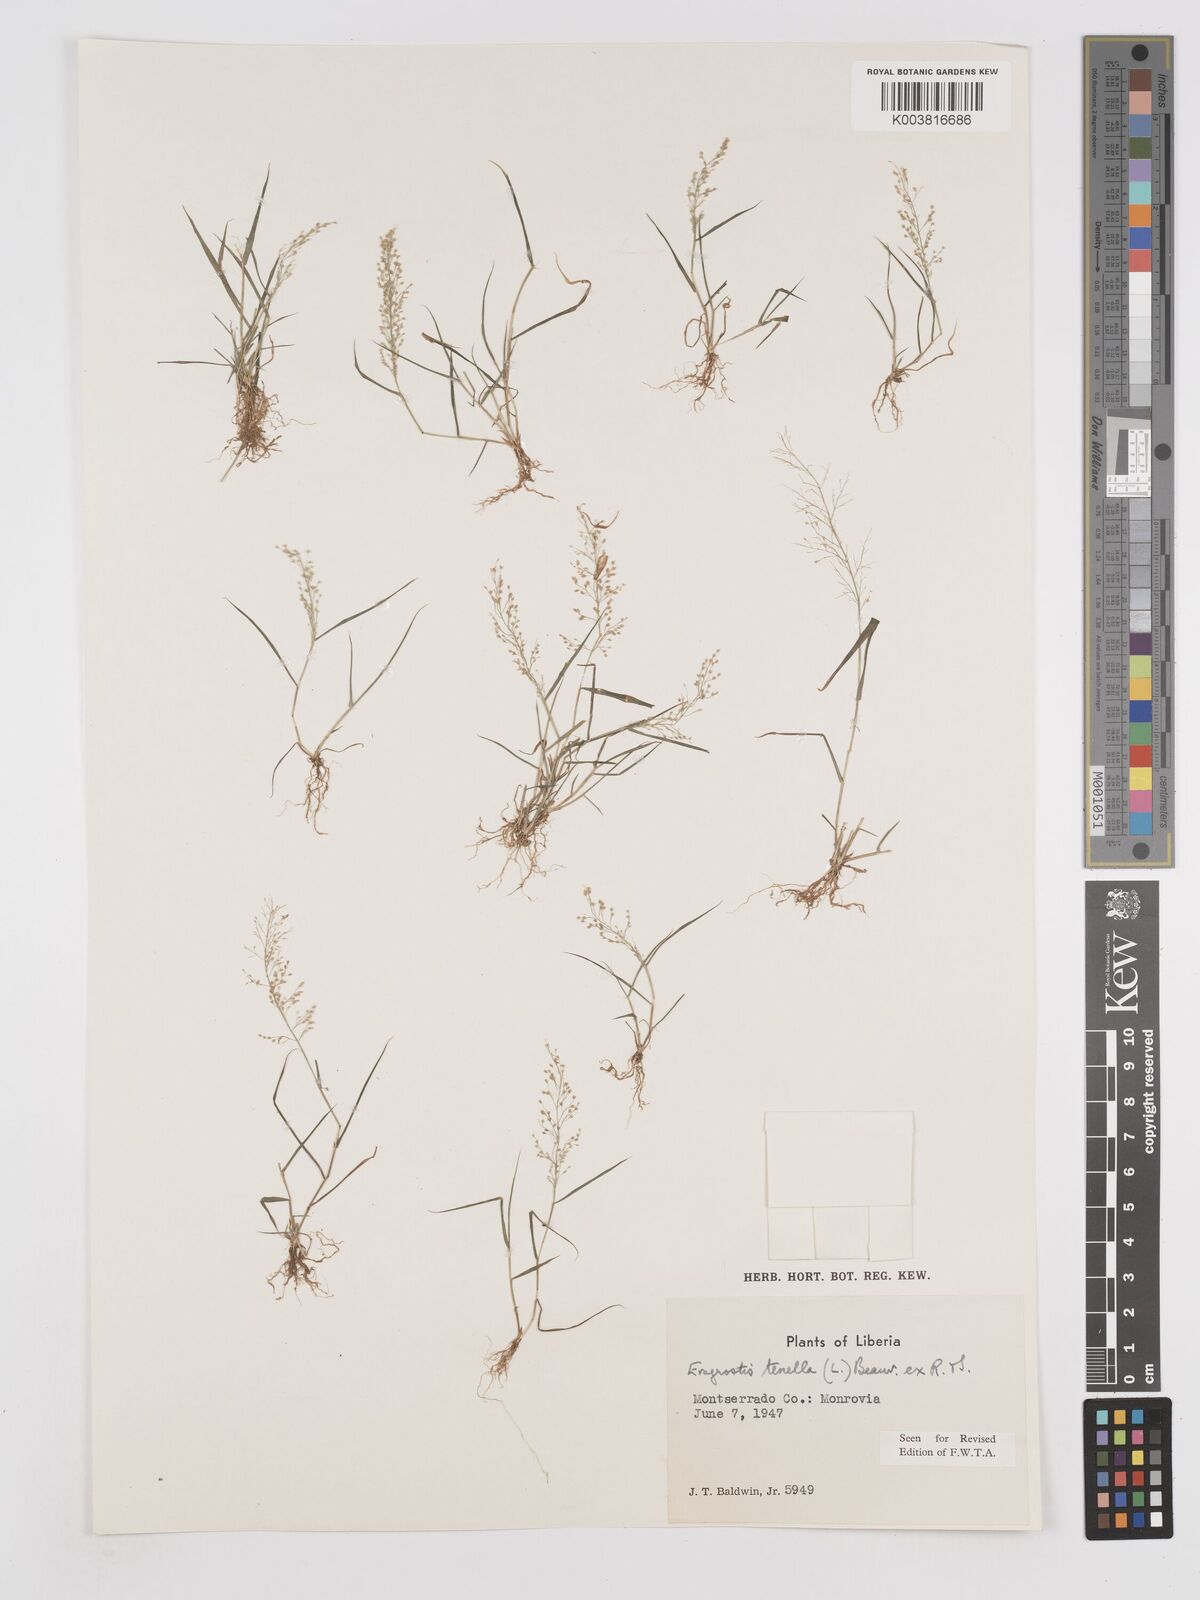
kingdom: Plantae
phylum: Tracheophyta
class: Liliopsida
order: Poales
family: Poaceae
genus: Eragrostis
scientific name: Eragrostis tenella
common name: Japanese lovegrass
